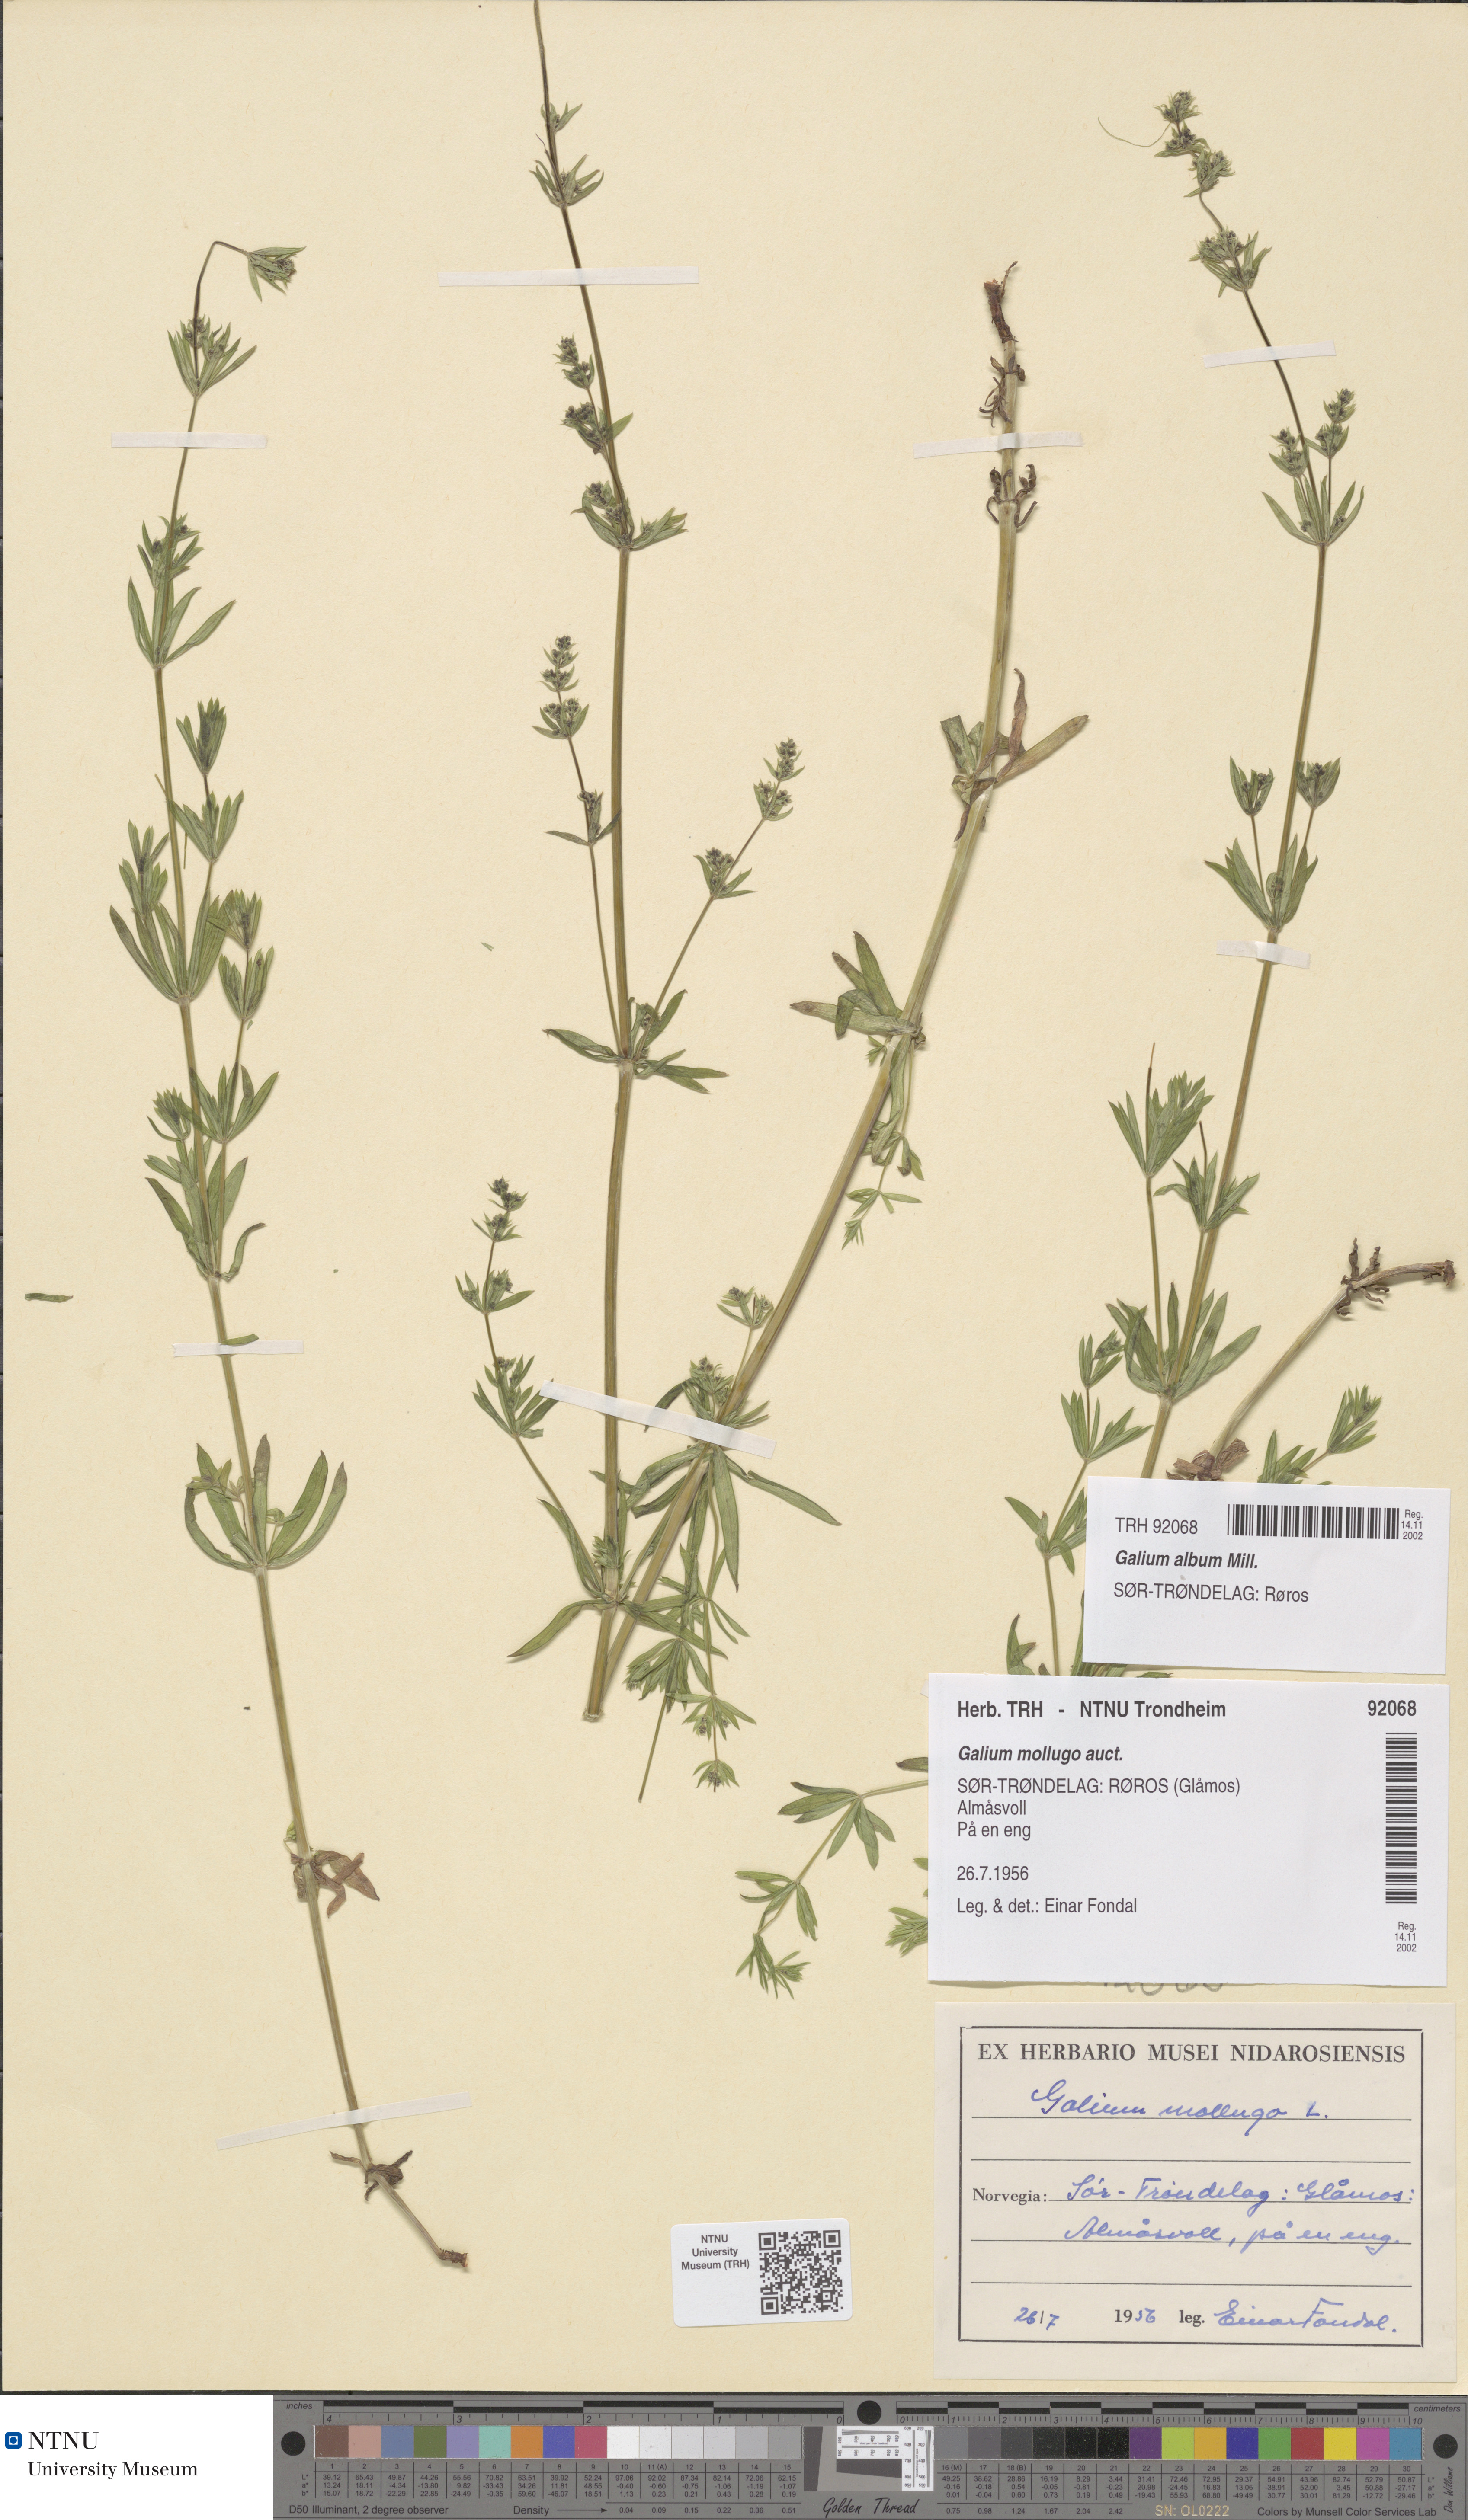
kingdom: Plantae
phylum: Tracheophyta
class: Magnoliopsida
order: Gentianales
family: Rubiaceae
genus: Galium
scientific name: Galium album
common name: White bedstraw
